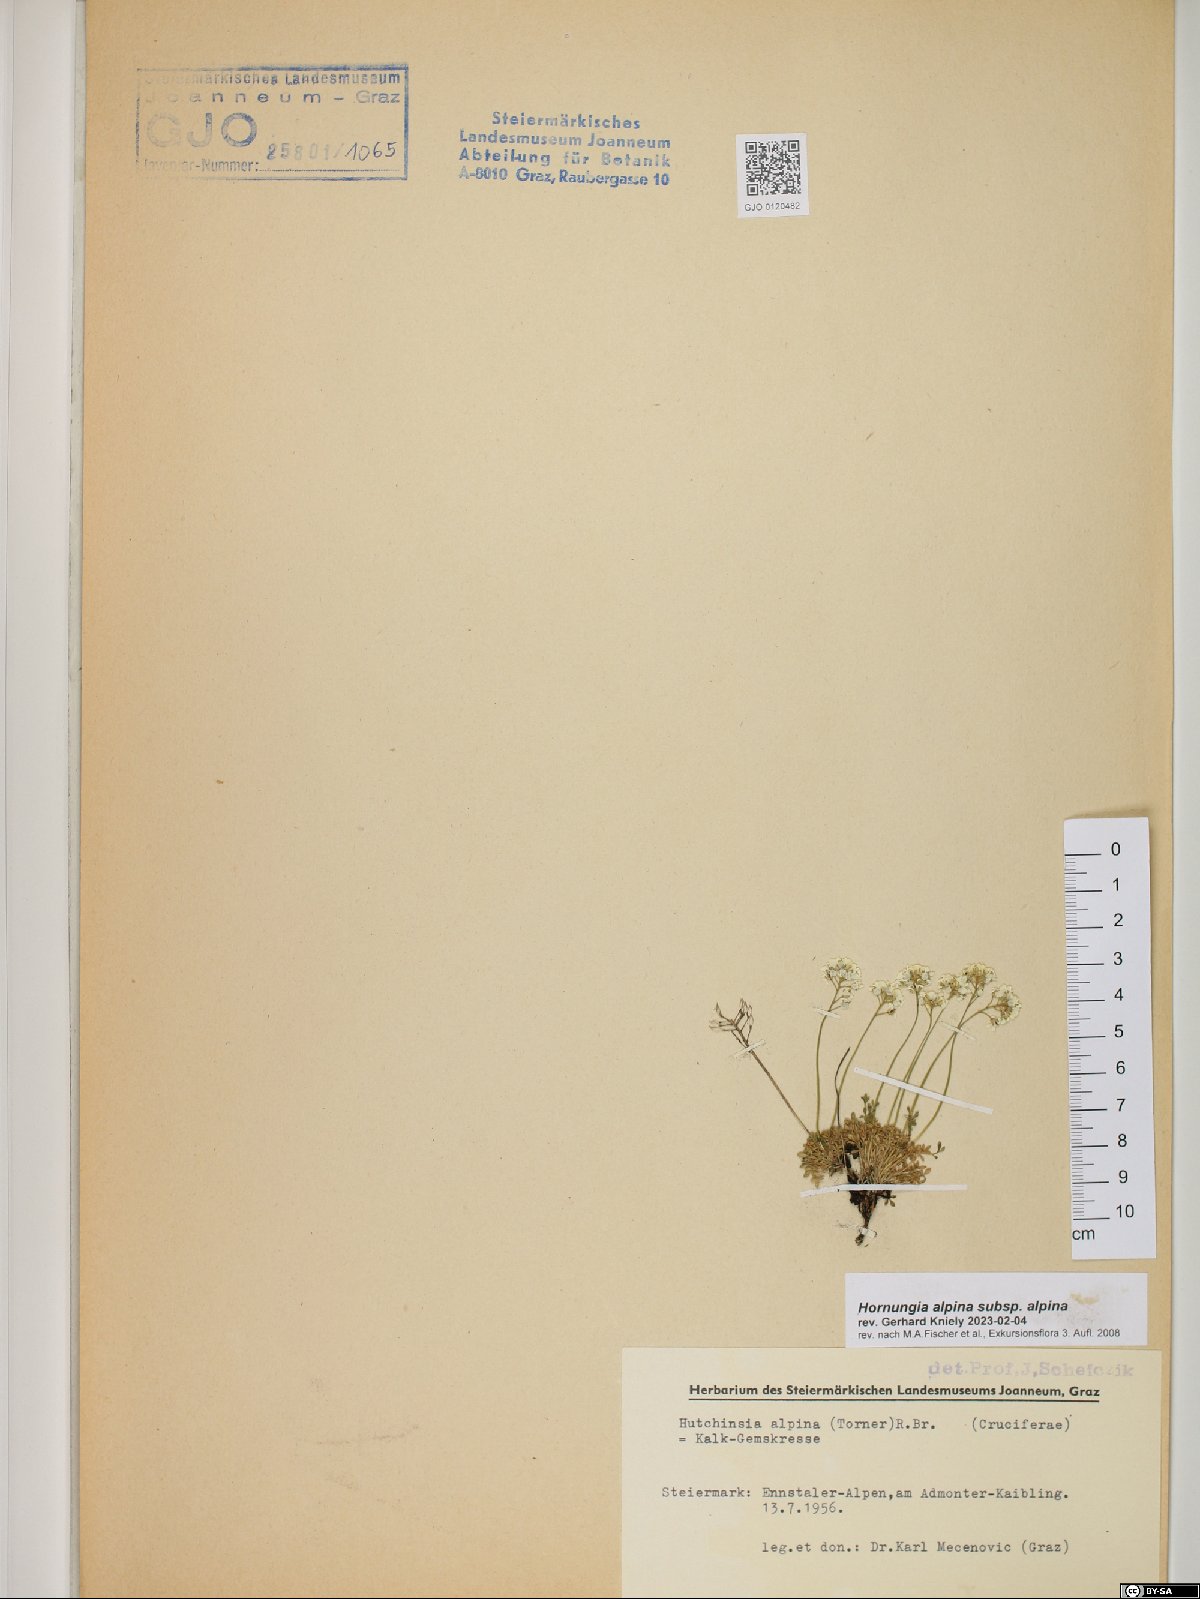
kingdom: Plantae
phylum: Tracheophyta
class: Magnoliopsida
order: Brassicales
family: Brassicaceae
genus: Hornungia
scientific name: Hornungia alpina
